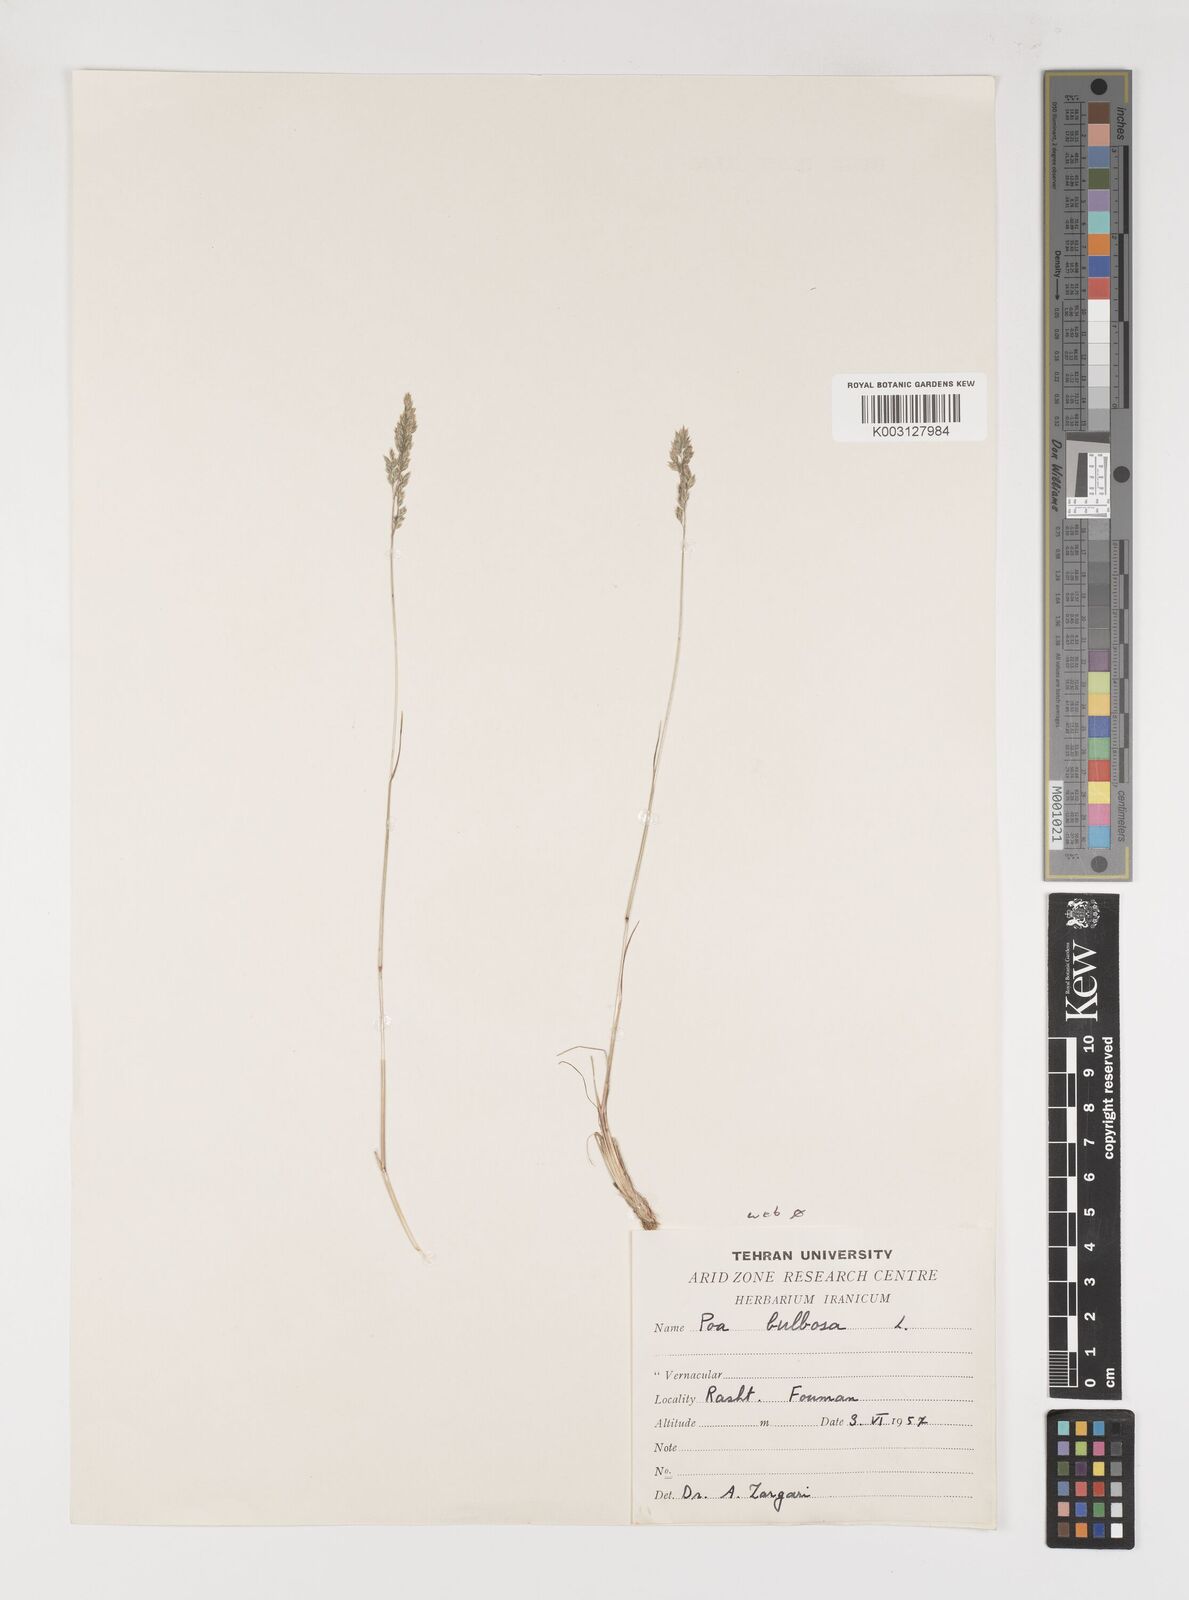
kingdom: Plantae
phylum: Tracheophyta
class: Liliopsida
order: Poales
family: Poaceae
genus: Poa
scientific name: Poa bulbosa
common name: Bulbous bluegrass
